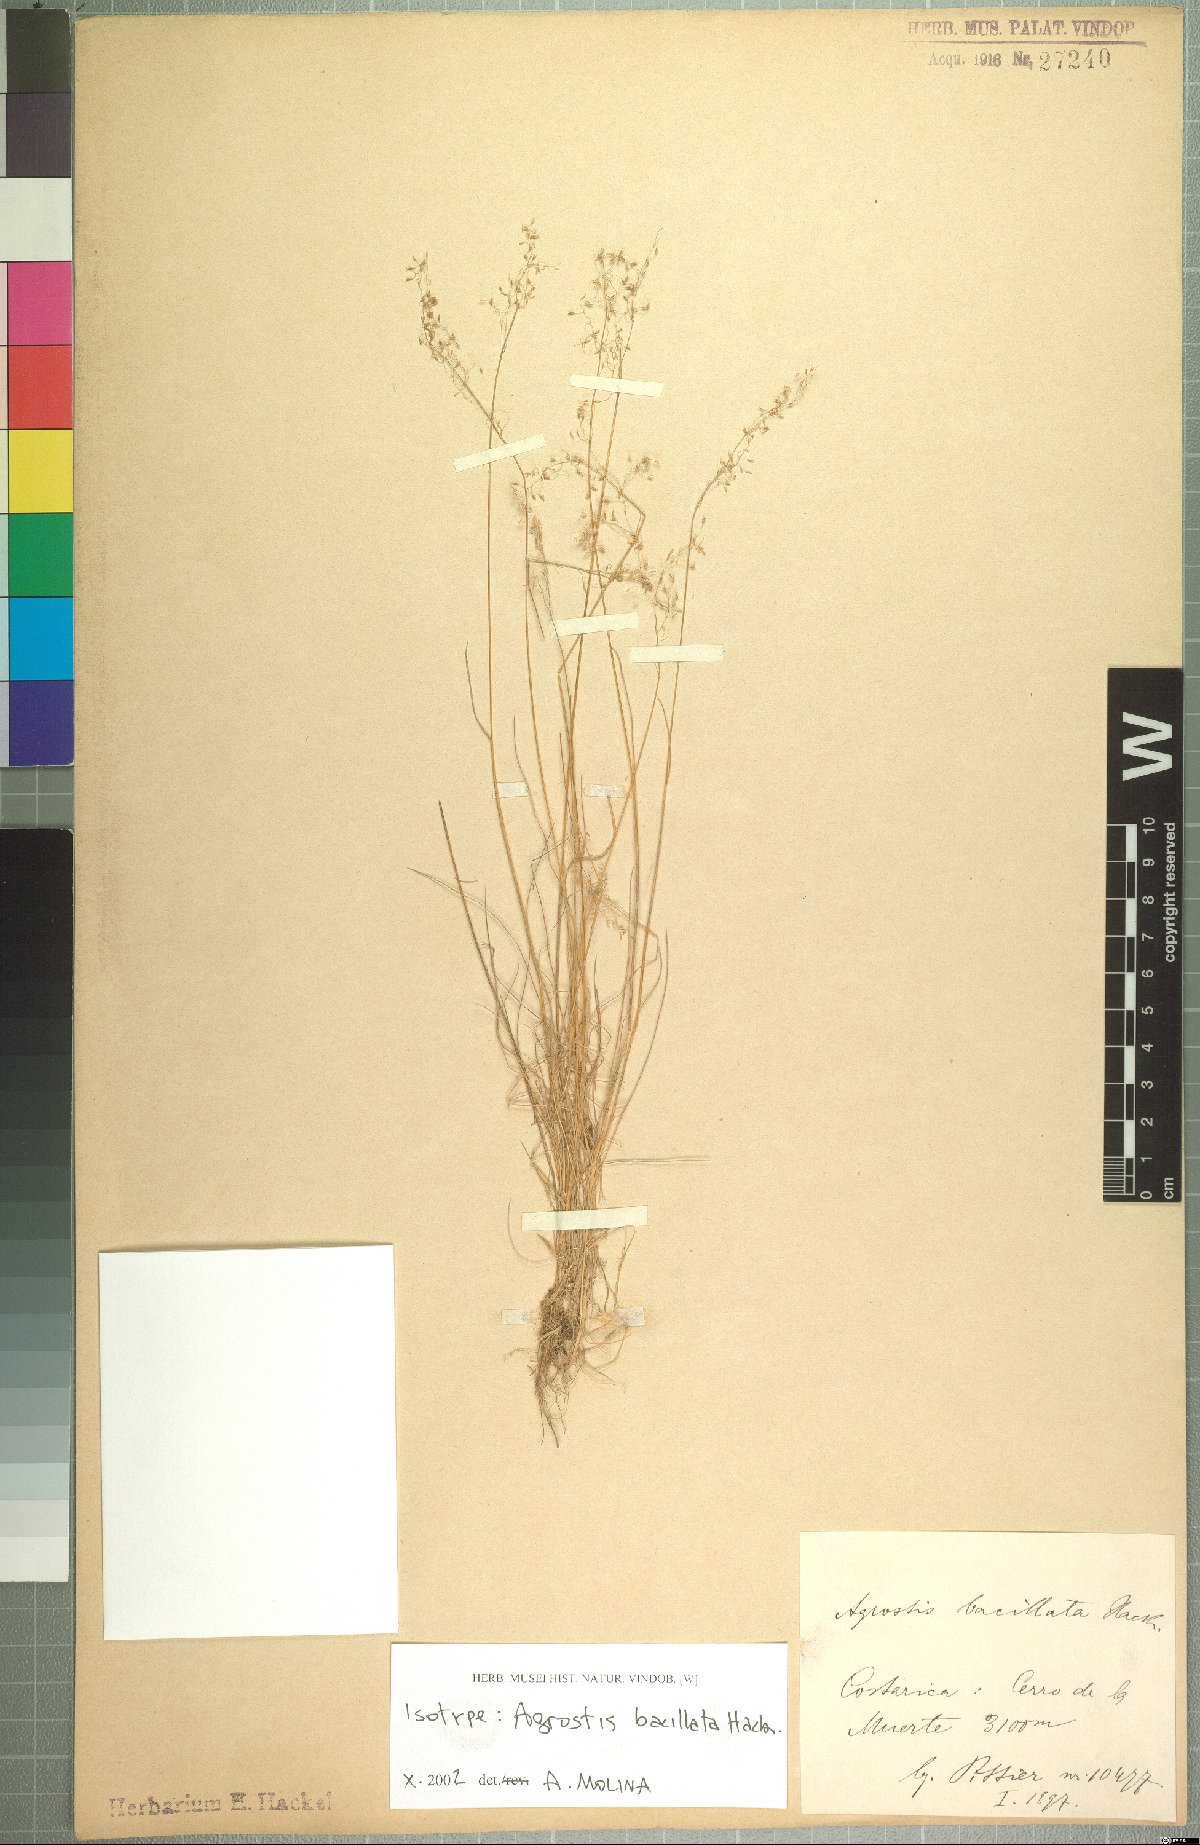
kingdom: Plantae
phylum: Tracheophyta
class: Liliopsida
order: Poales
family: Poaceae
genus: Podagrostis
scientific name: Podagrostis bacillata
